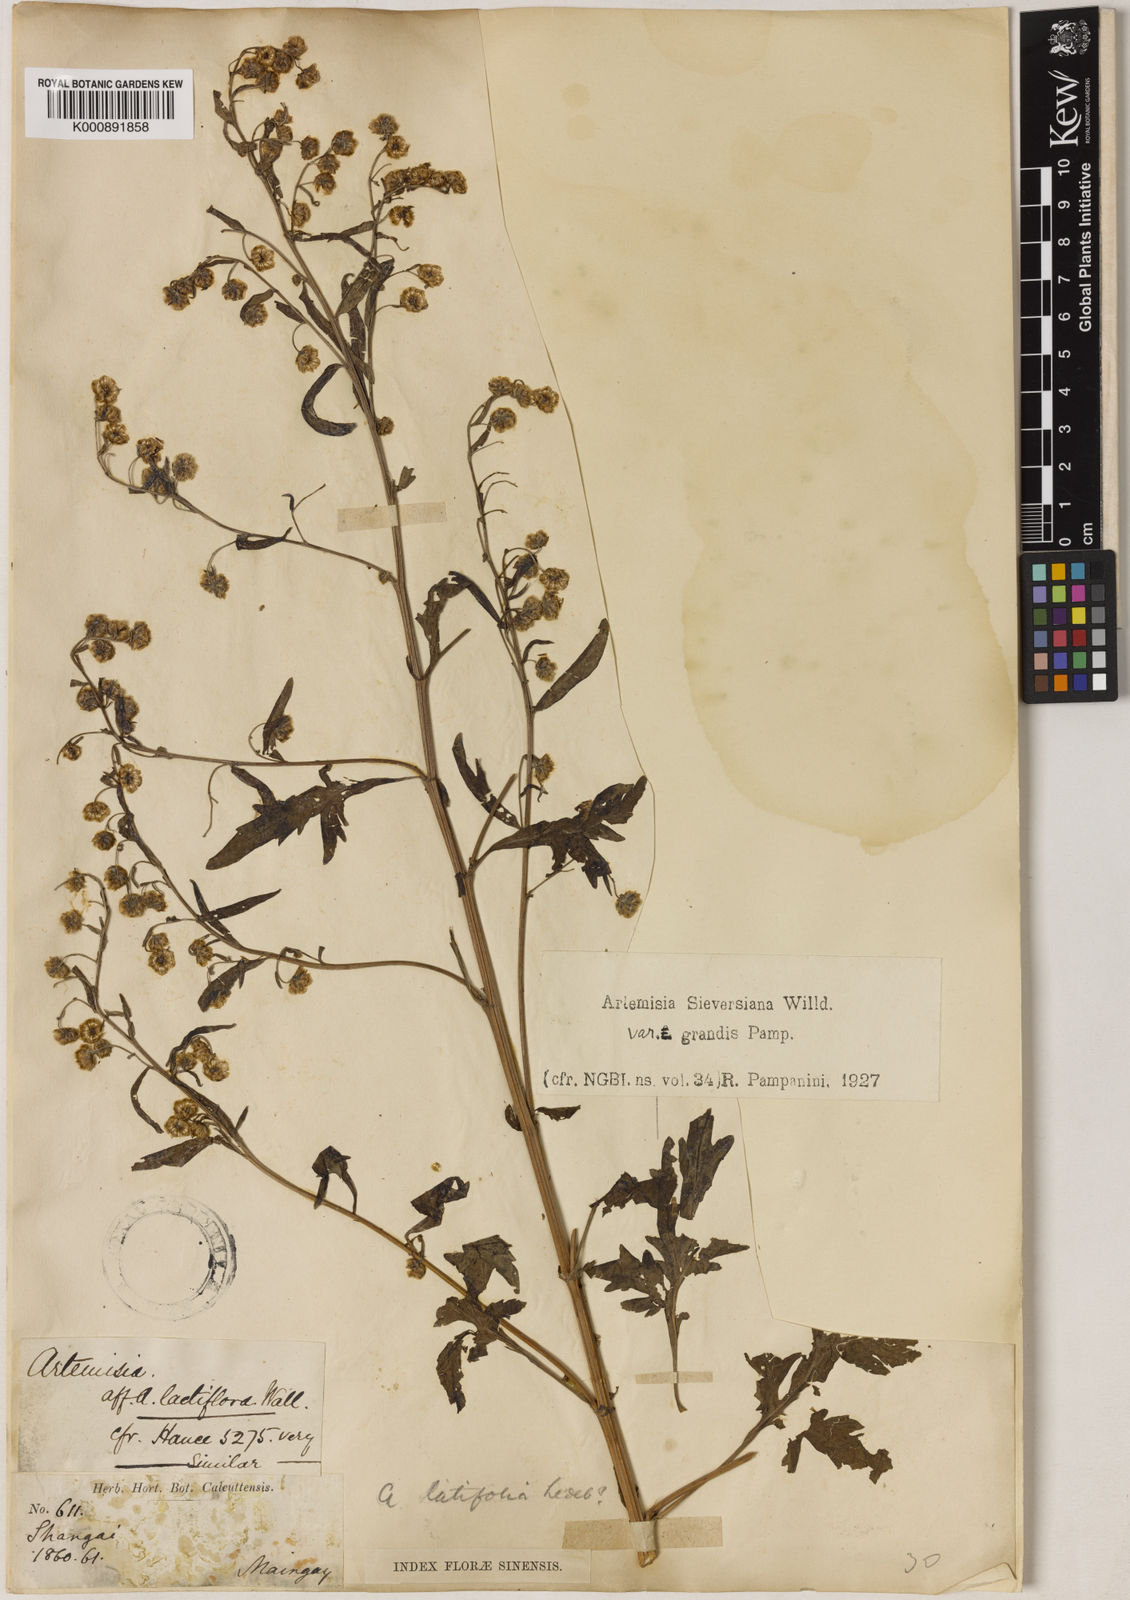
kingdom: Plantae
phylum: Tracheophyta
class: Magnoliopsida
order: Asterales
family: Asteraceae
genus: Artemisia
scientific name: Artemisia
